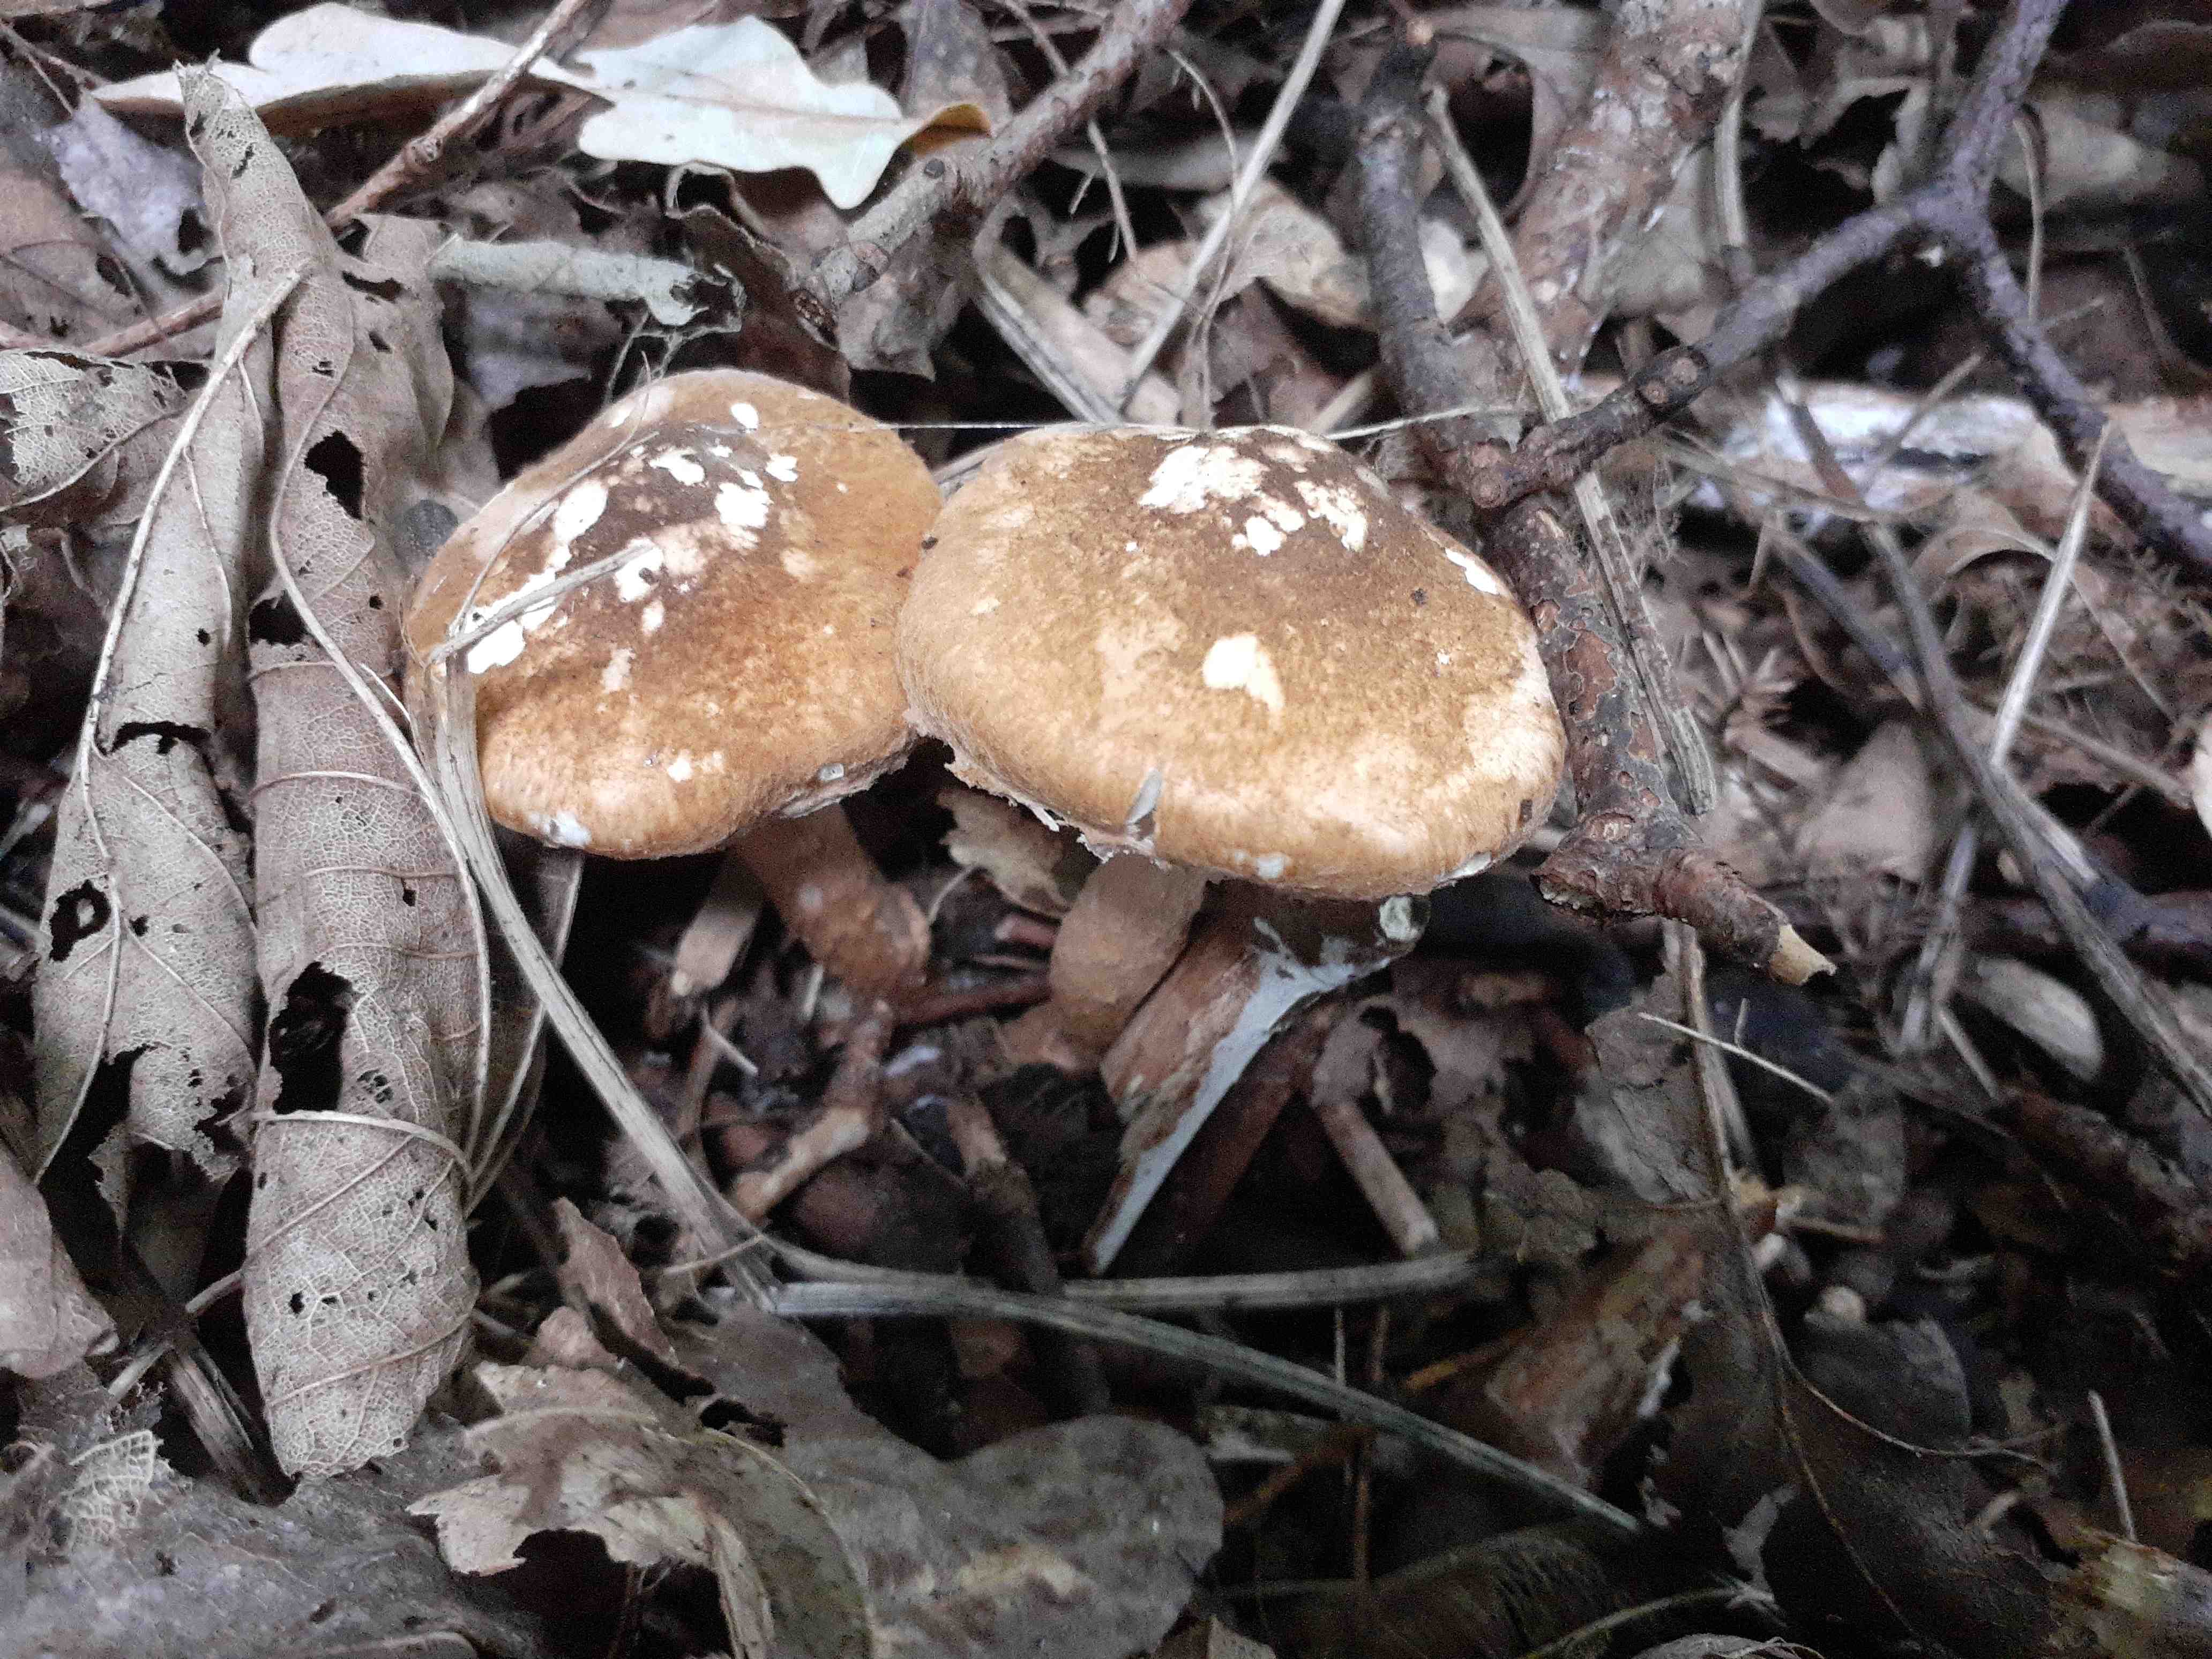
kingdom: Fungi
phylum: Basidiomycota
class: Agaricomycetes
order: Agaricales
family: Agaricaceae
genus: Leucocoprinus
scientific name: Leucocoprinus straminellus
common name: rustbrun parasolhat
